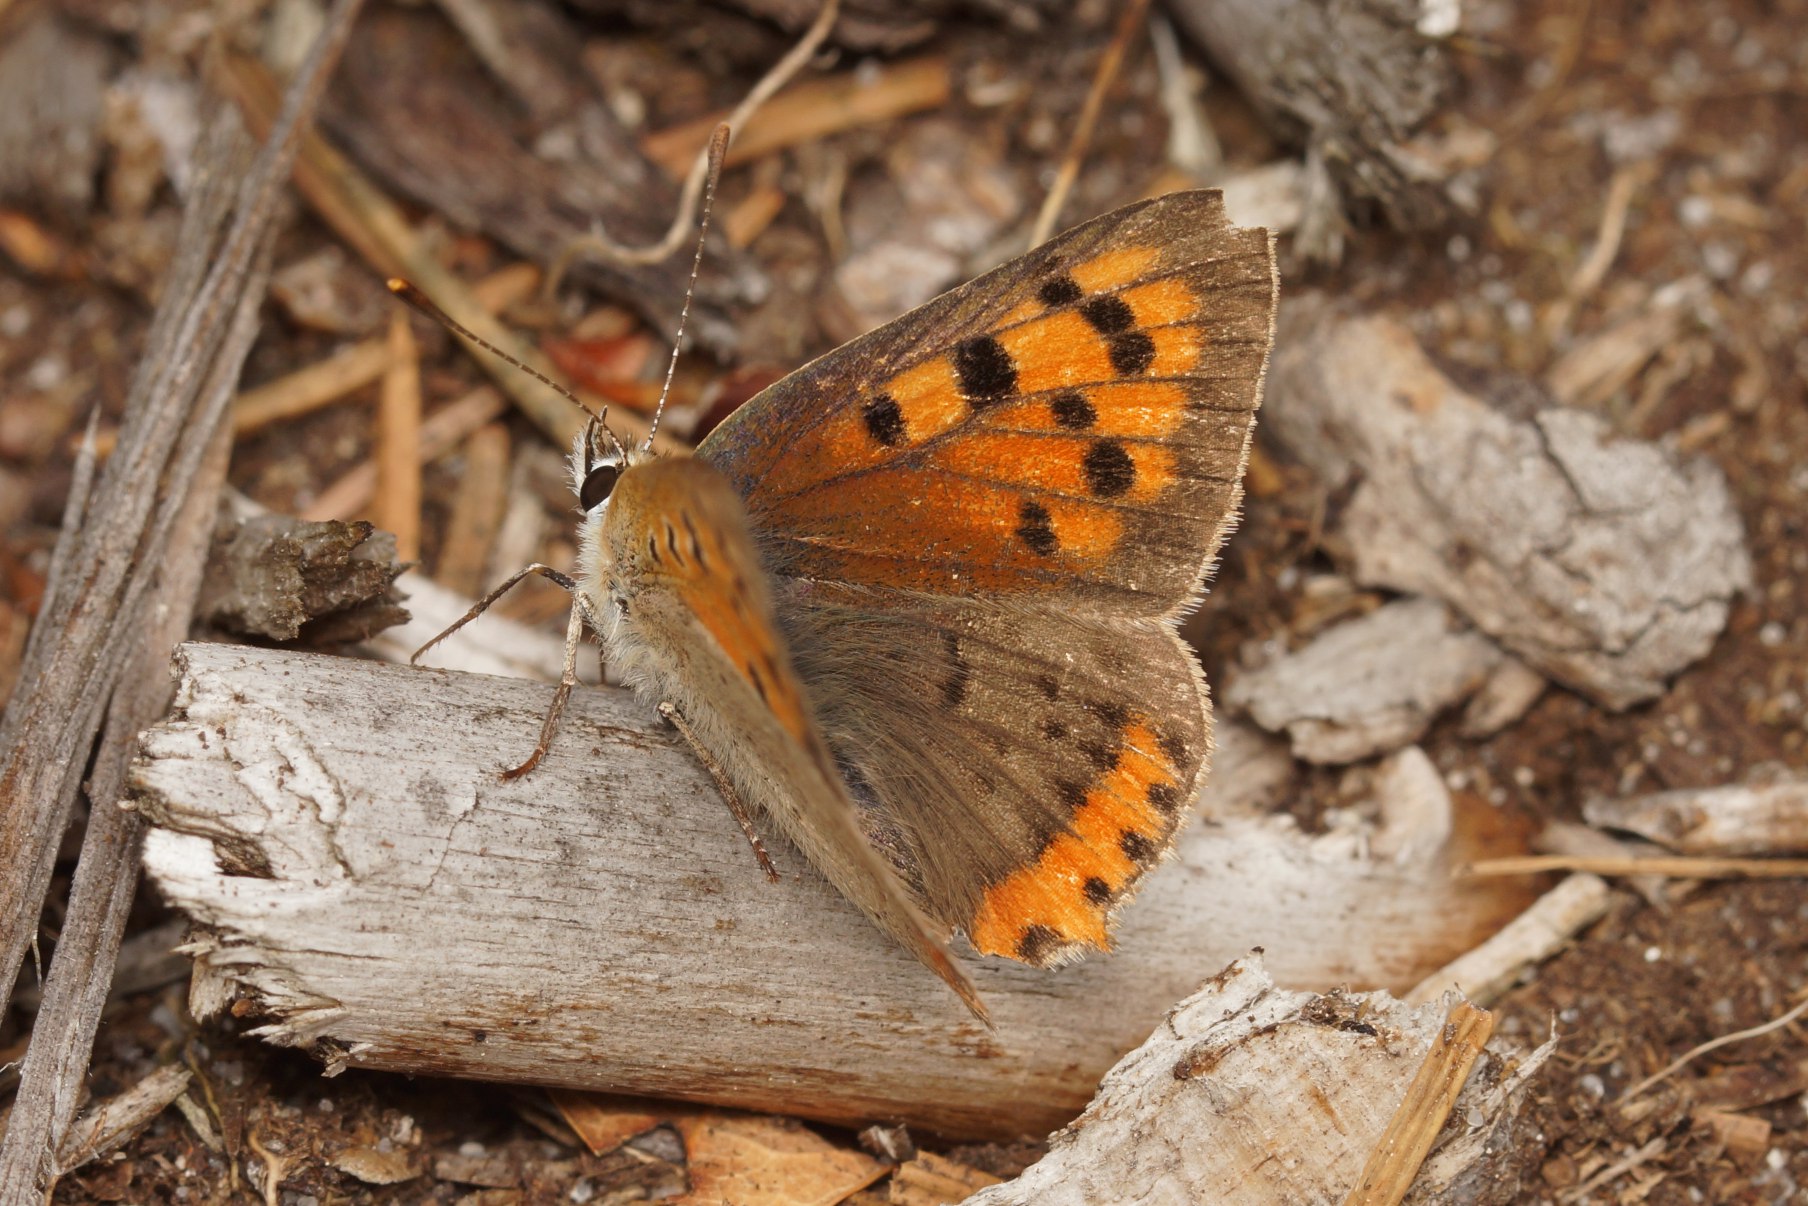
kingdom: Animalia
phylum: Arthropoda
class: Insecta
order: Lepidoptera
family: Lycaenidae
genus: Lycaena
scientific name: Lycaena phlaeas
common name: Lille ildfugl
